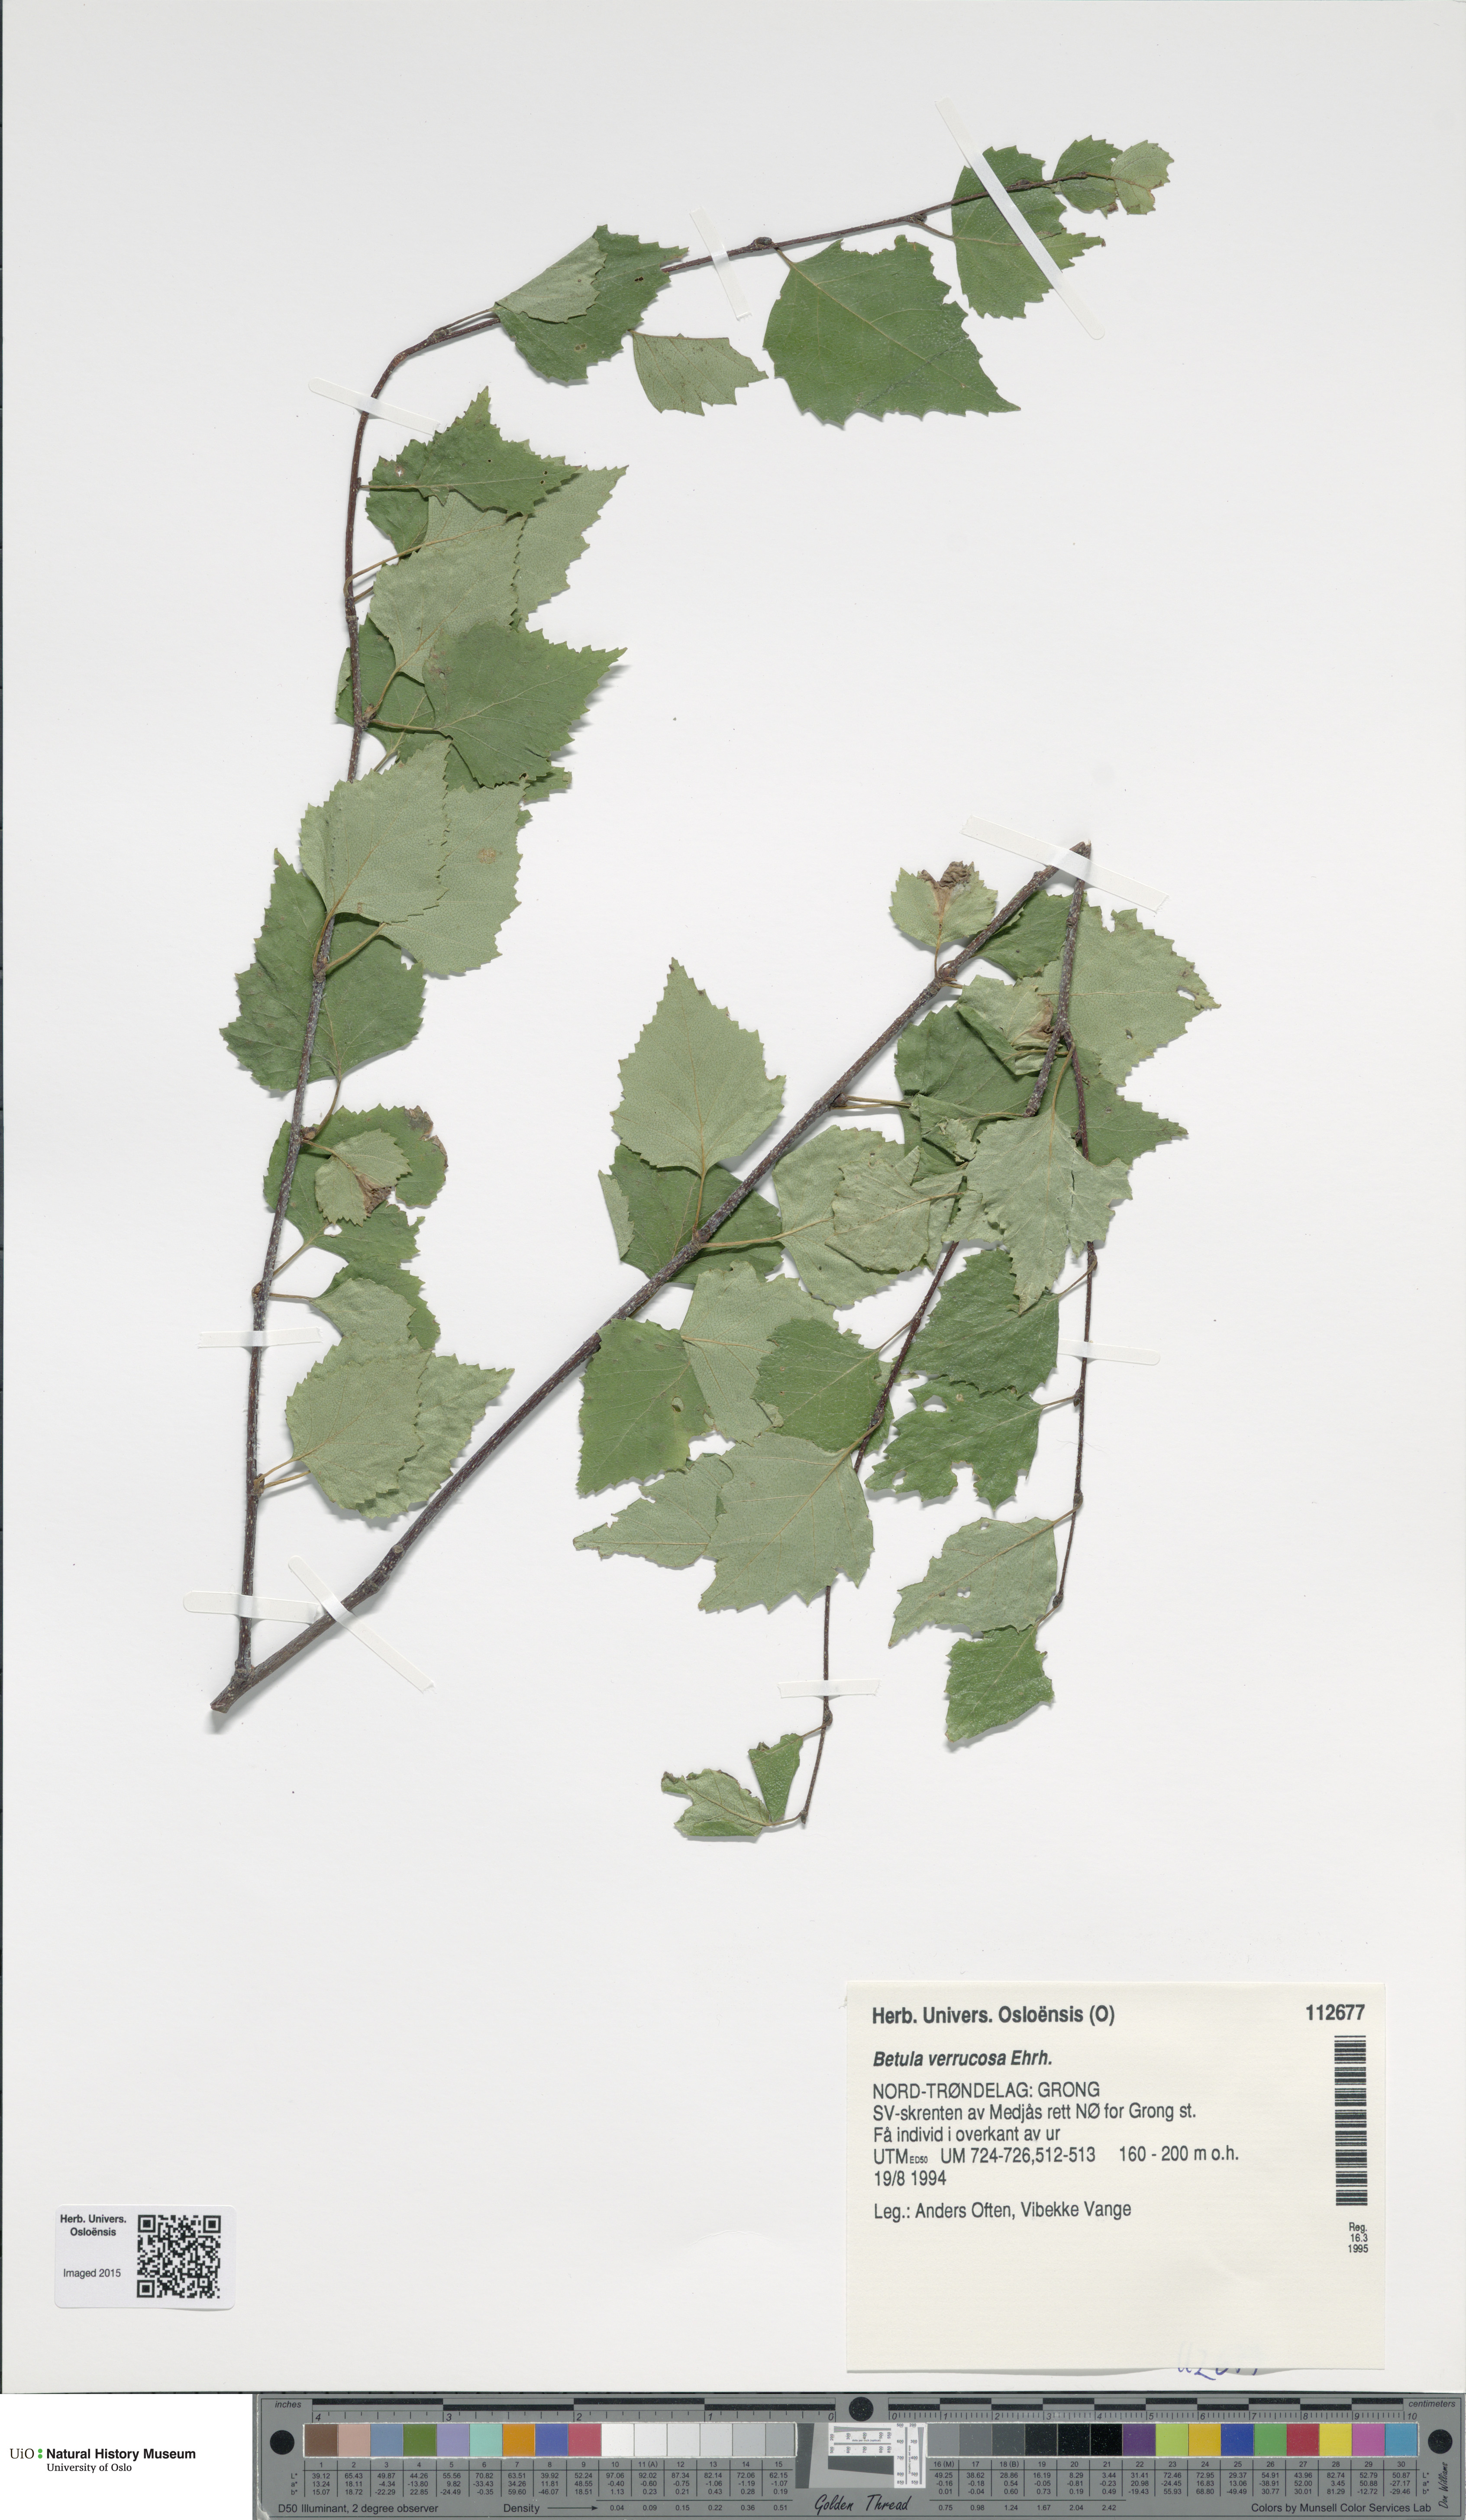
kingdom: Plantae
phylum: Tracheophyta
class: Magnoliopsida
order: Fagales
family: Betulaceae
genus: Betula
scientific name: Betula pendula
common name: Silver birch
